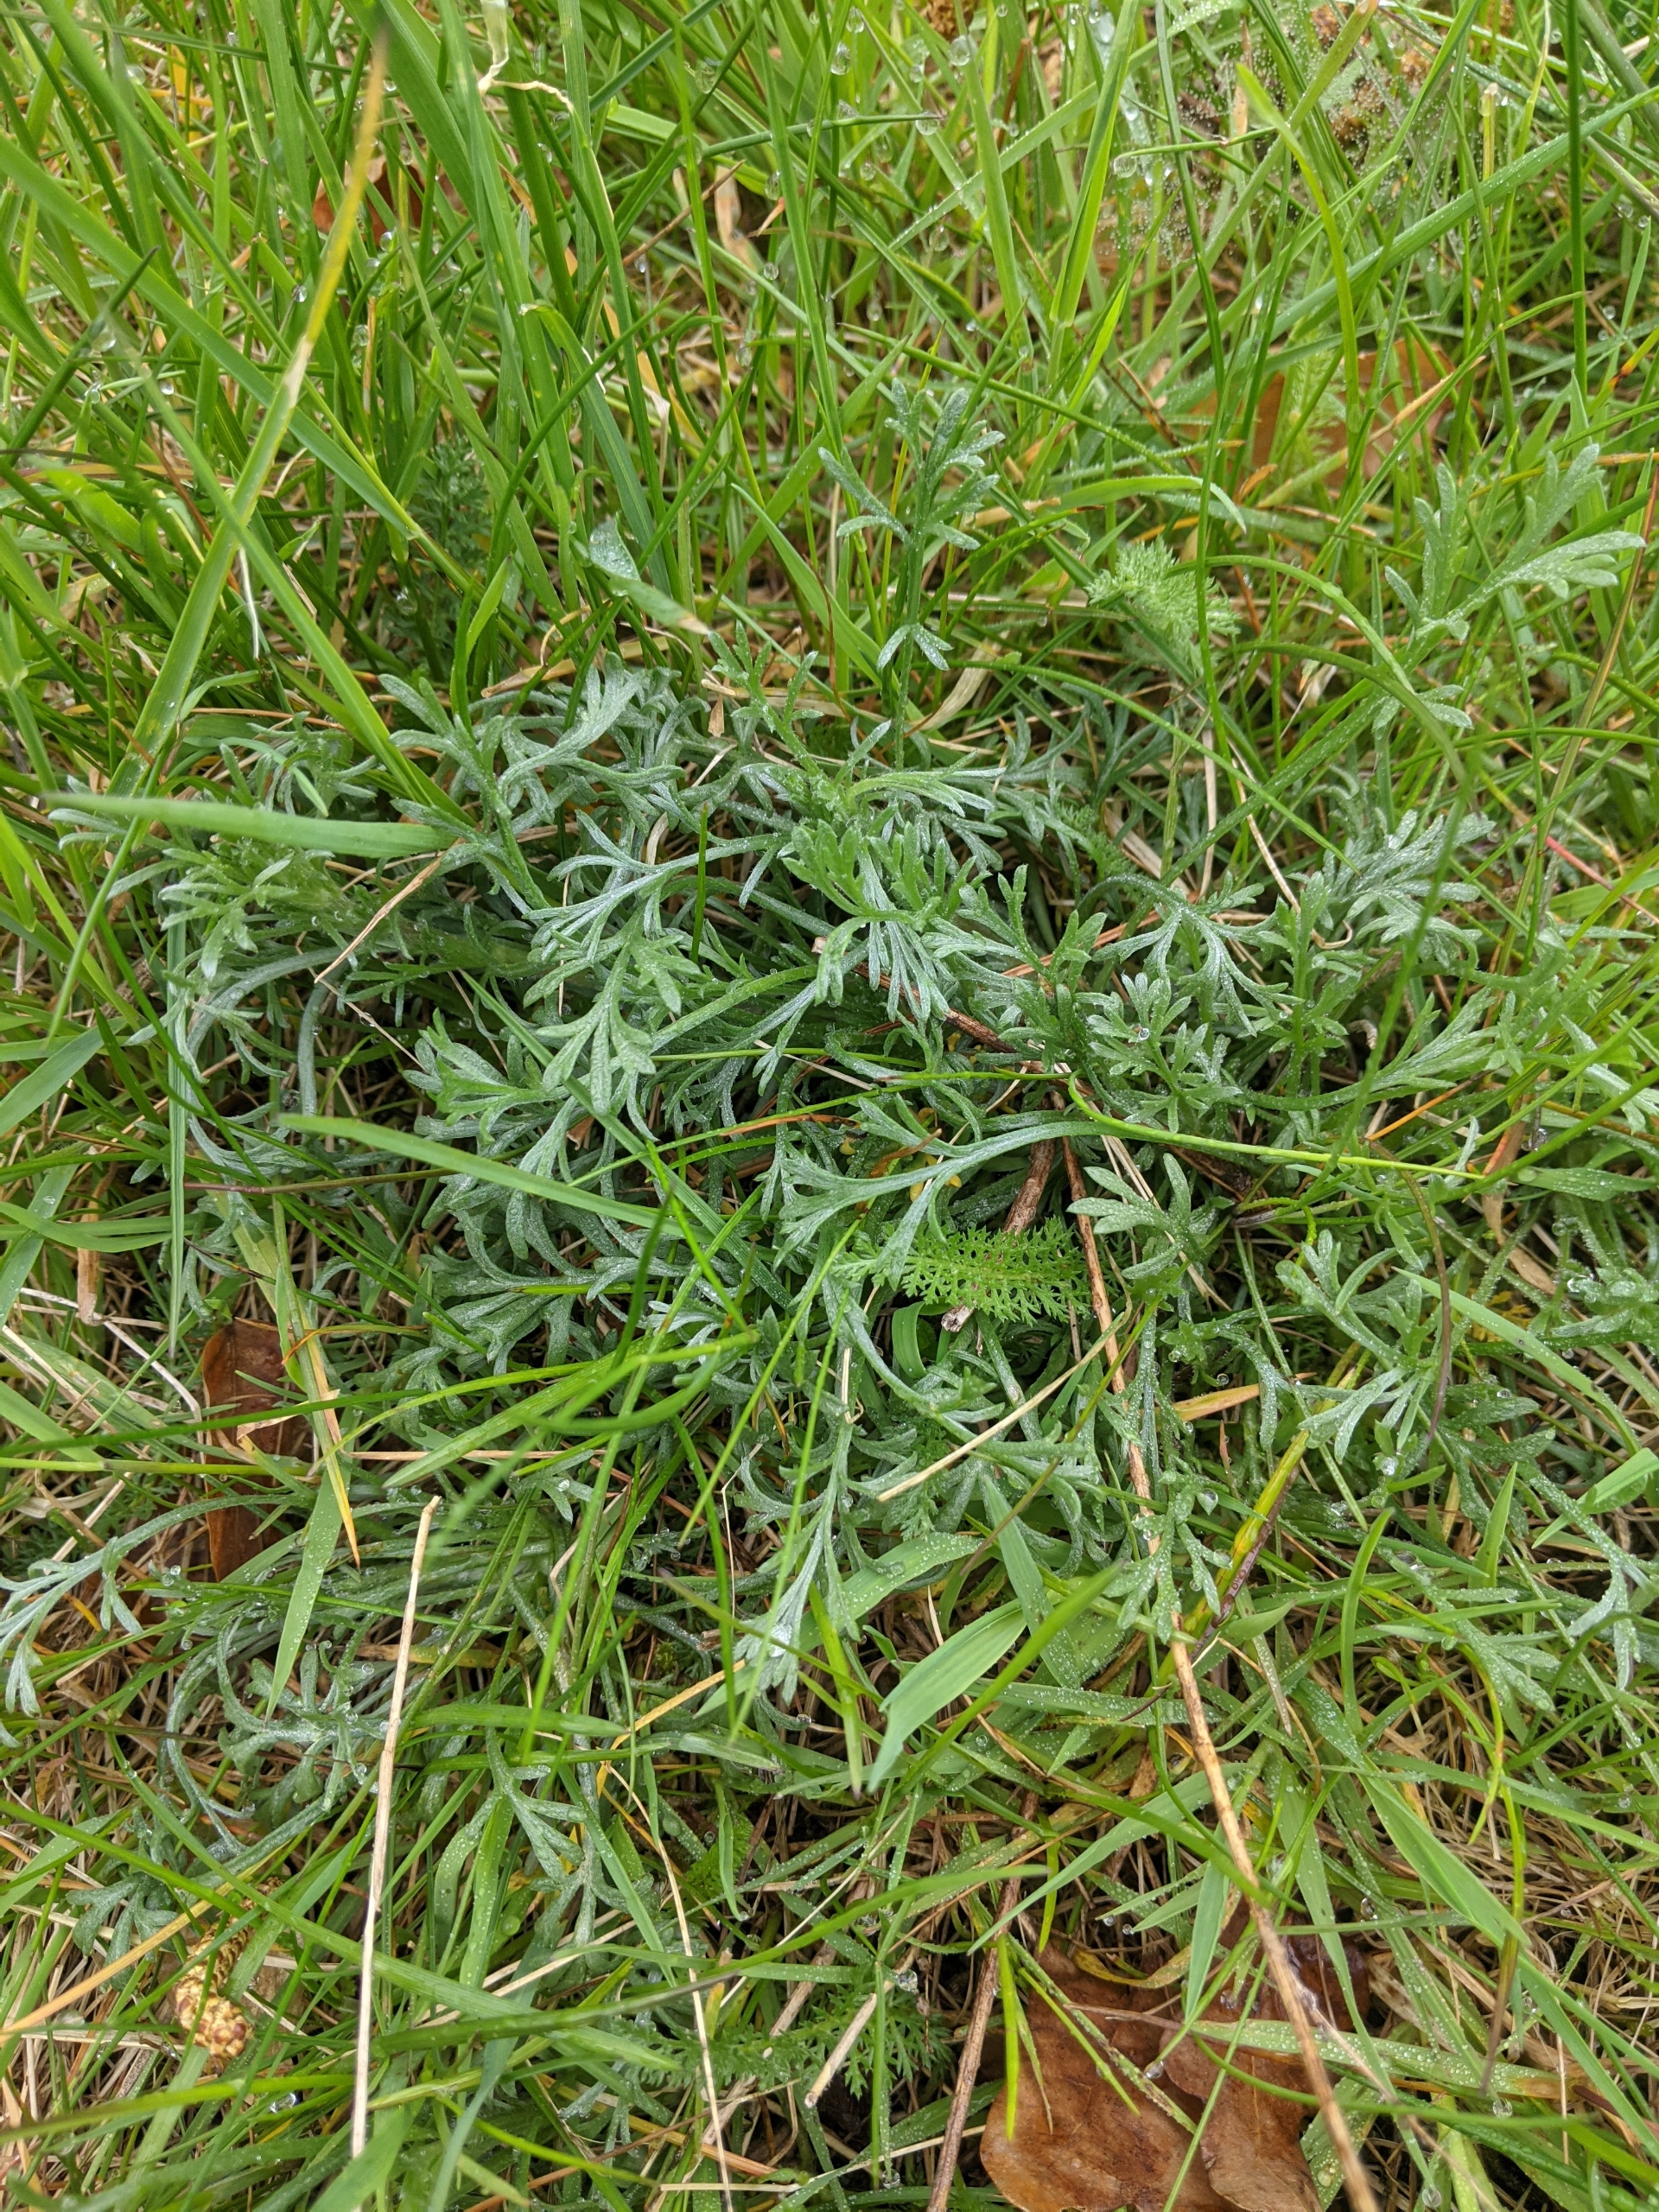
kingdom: Plantae
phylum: Tracheophyta
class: Magnoliopsida
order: Asterales
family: Asteraceae
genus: Artemisia
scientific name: Artemisia campestris
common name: Mark-bynke
